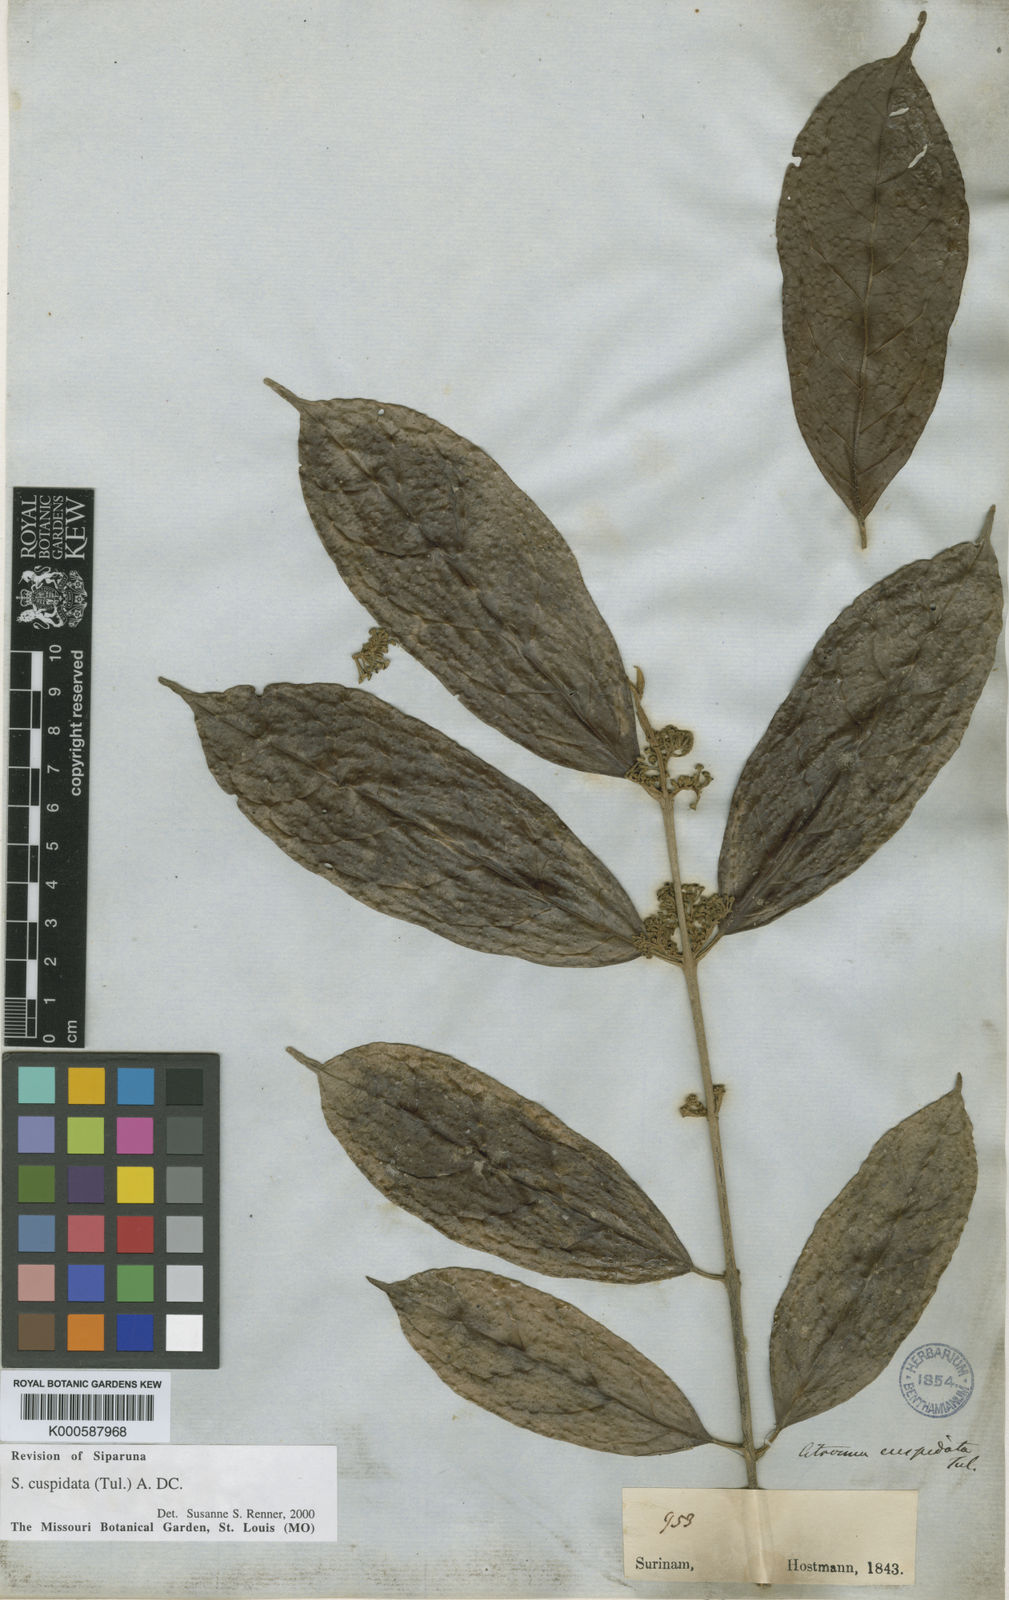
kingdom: Plantae
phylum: Tracheophyta
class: Magnoliopsida
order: Laurales
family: Siparunaceae
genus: Siparuna
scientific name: Siparuna cuspidata
